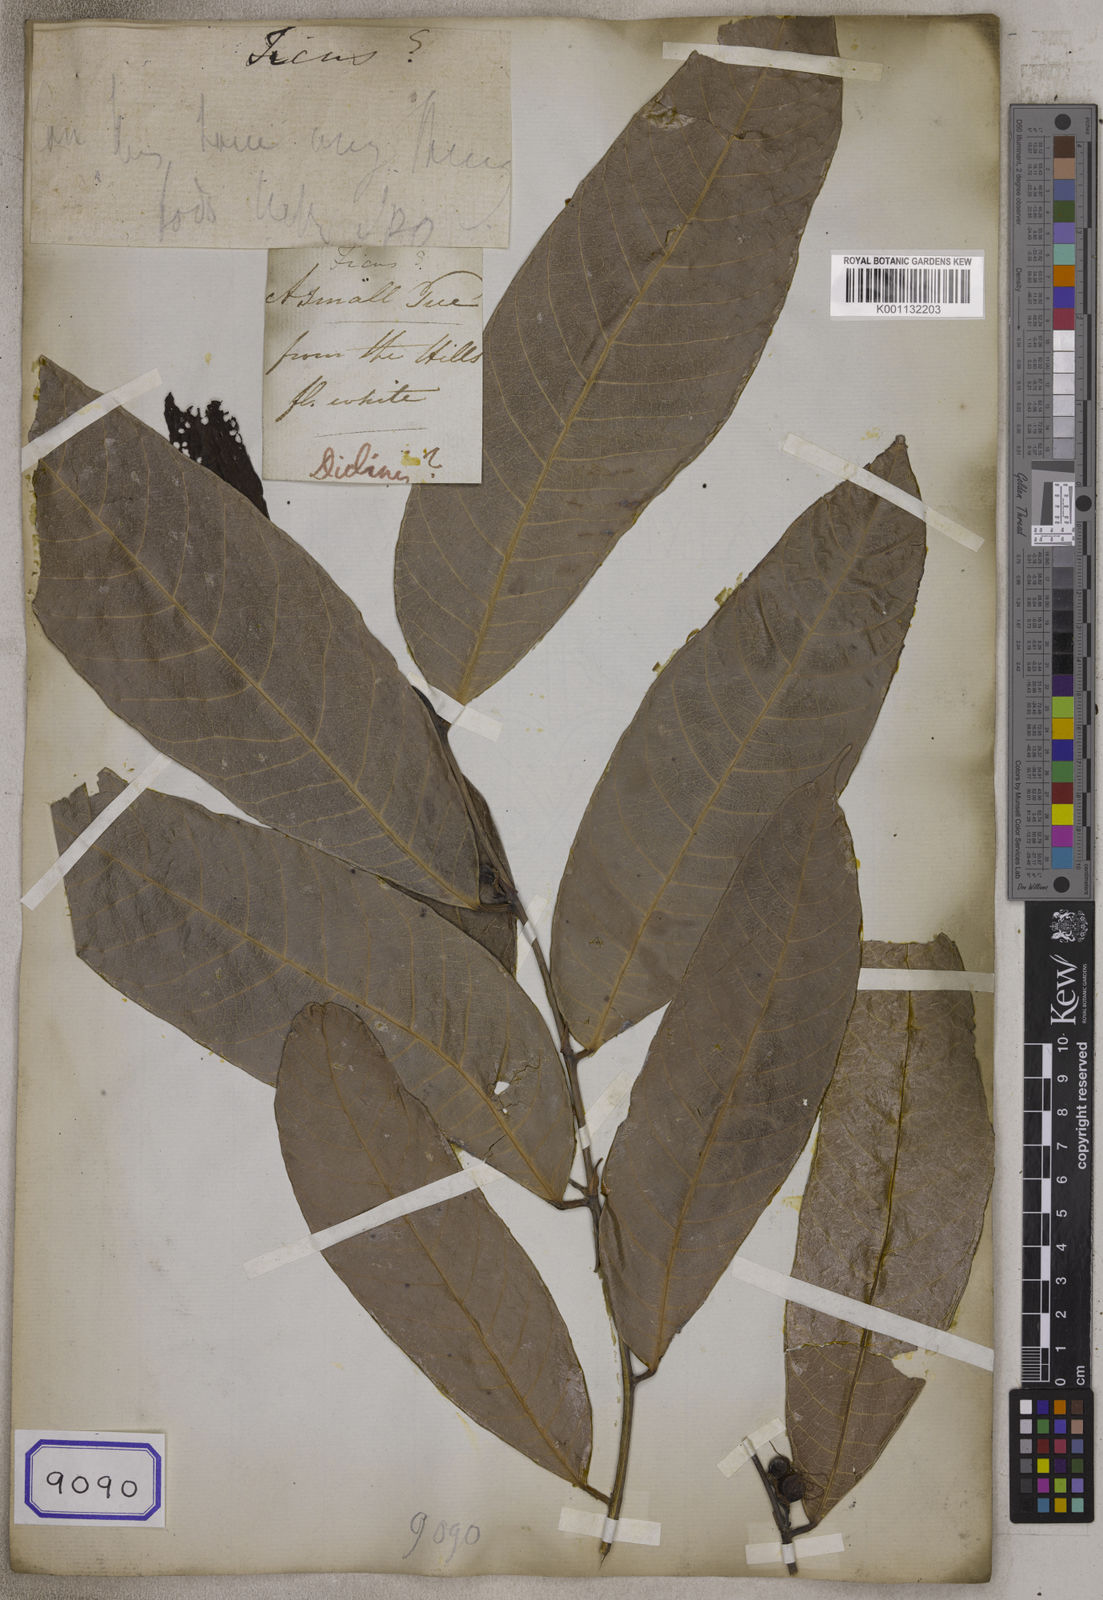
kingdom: Plantae
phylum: Tracheophyta
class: Magnoliopsida
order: Rosales
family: Urticaceae
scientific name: Urticaceae
